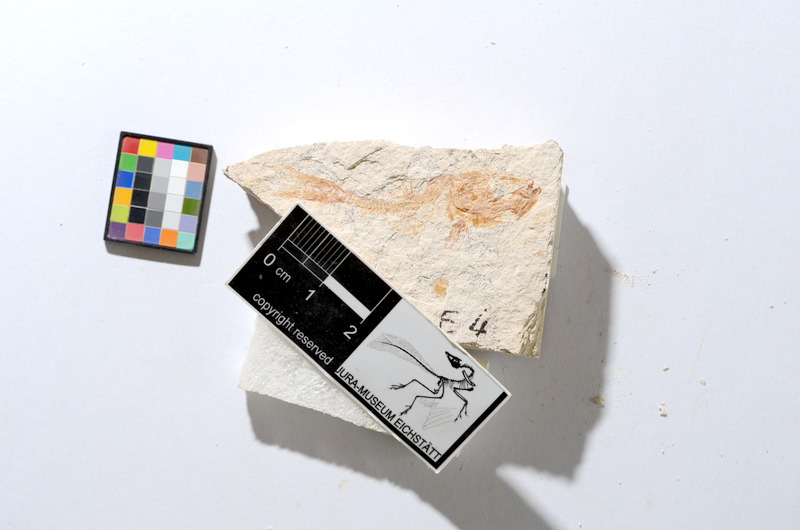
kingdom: Animalia
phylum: Chordata
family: Ascalaboidae
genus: Tharsis
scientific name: Tharsis dubius
